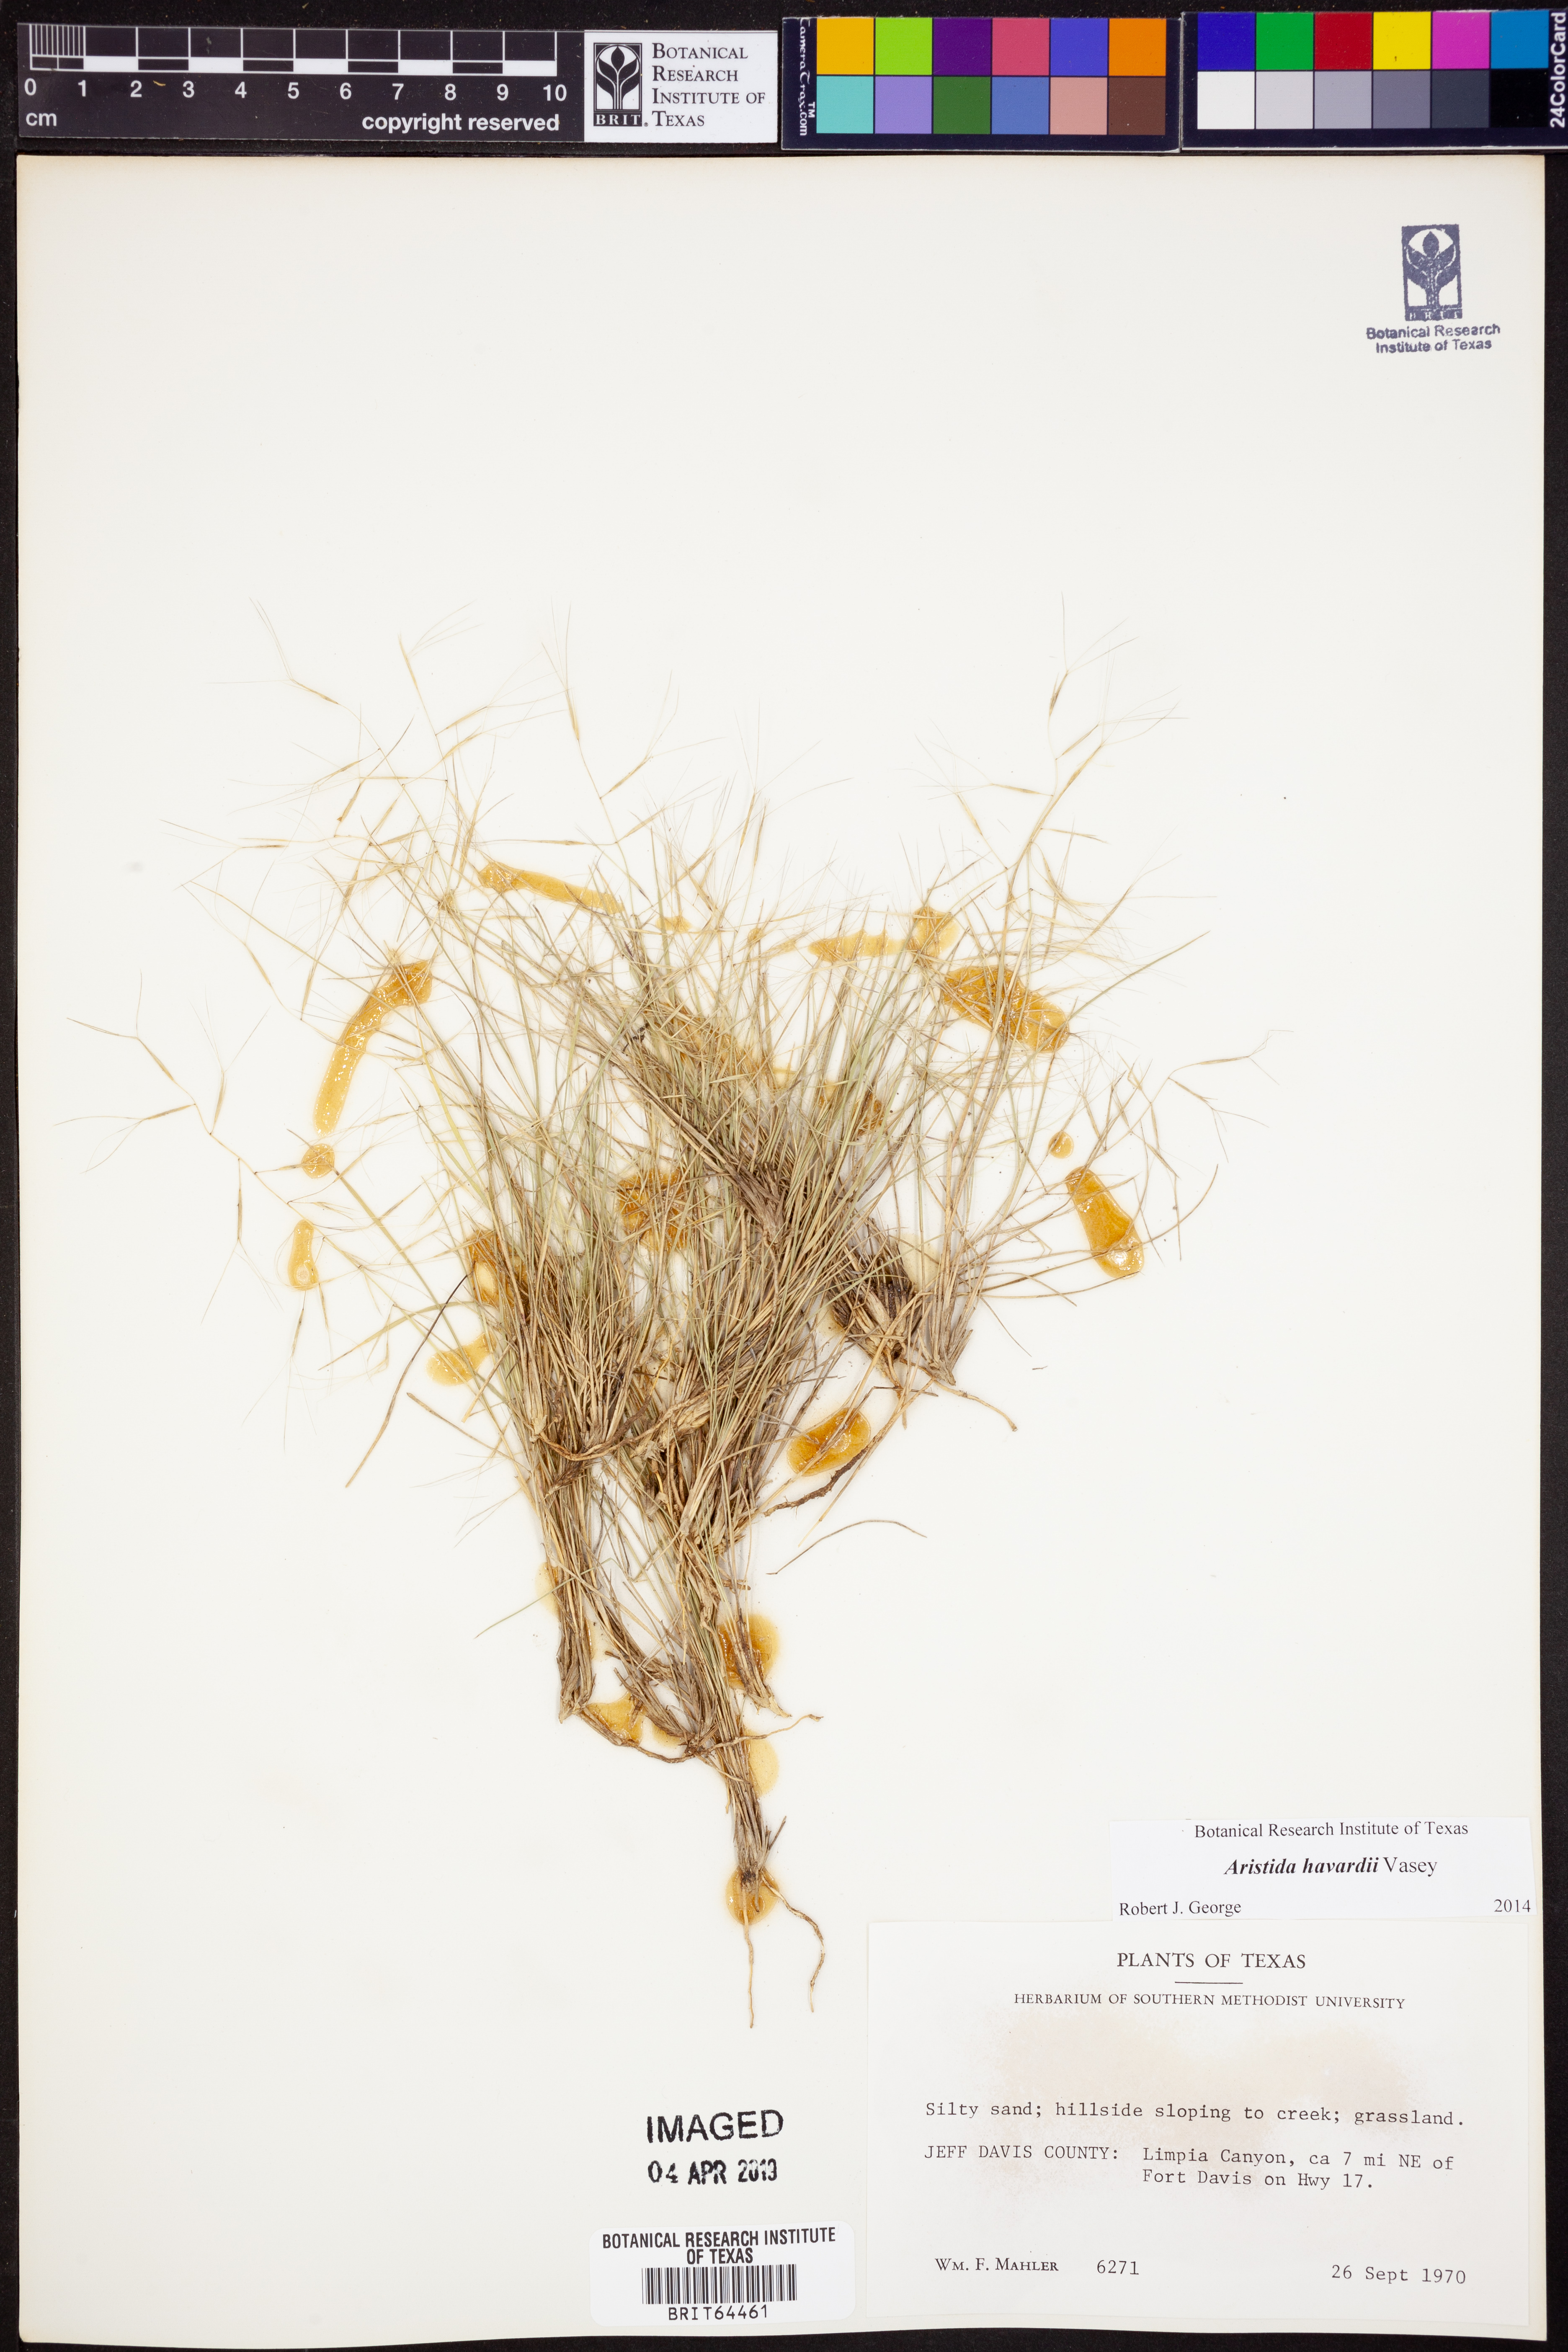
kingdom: Plantae
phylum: Tracheophyta
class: Liliopsida
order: Poales
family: Poaceae
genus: Aristida
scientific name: Aristida havardii
